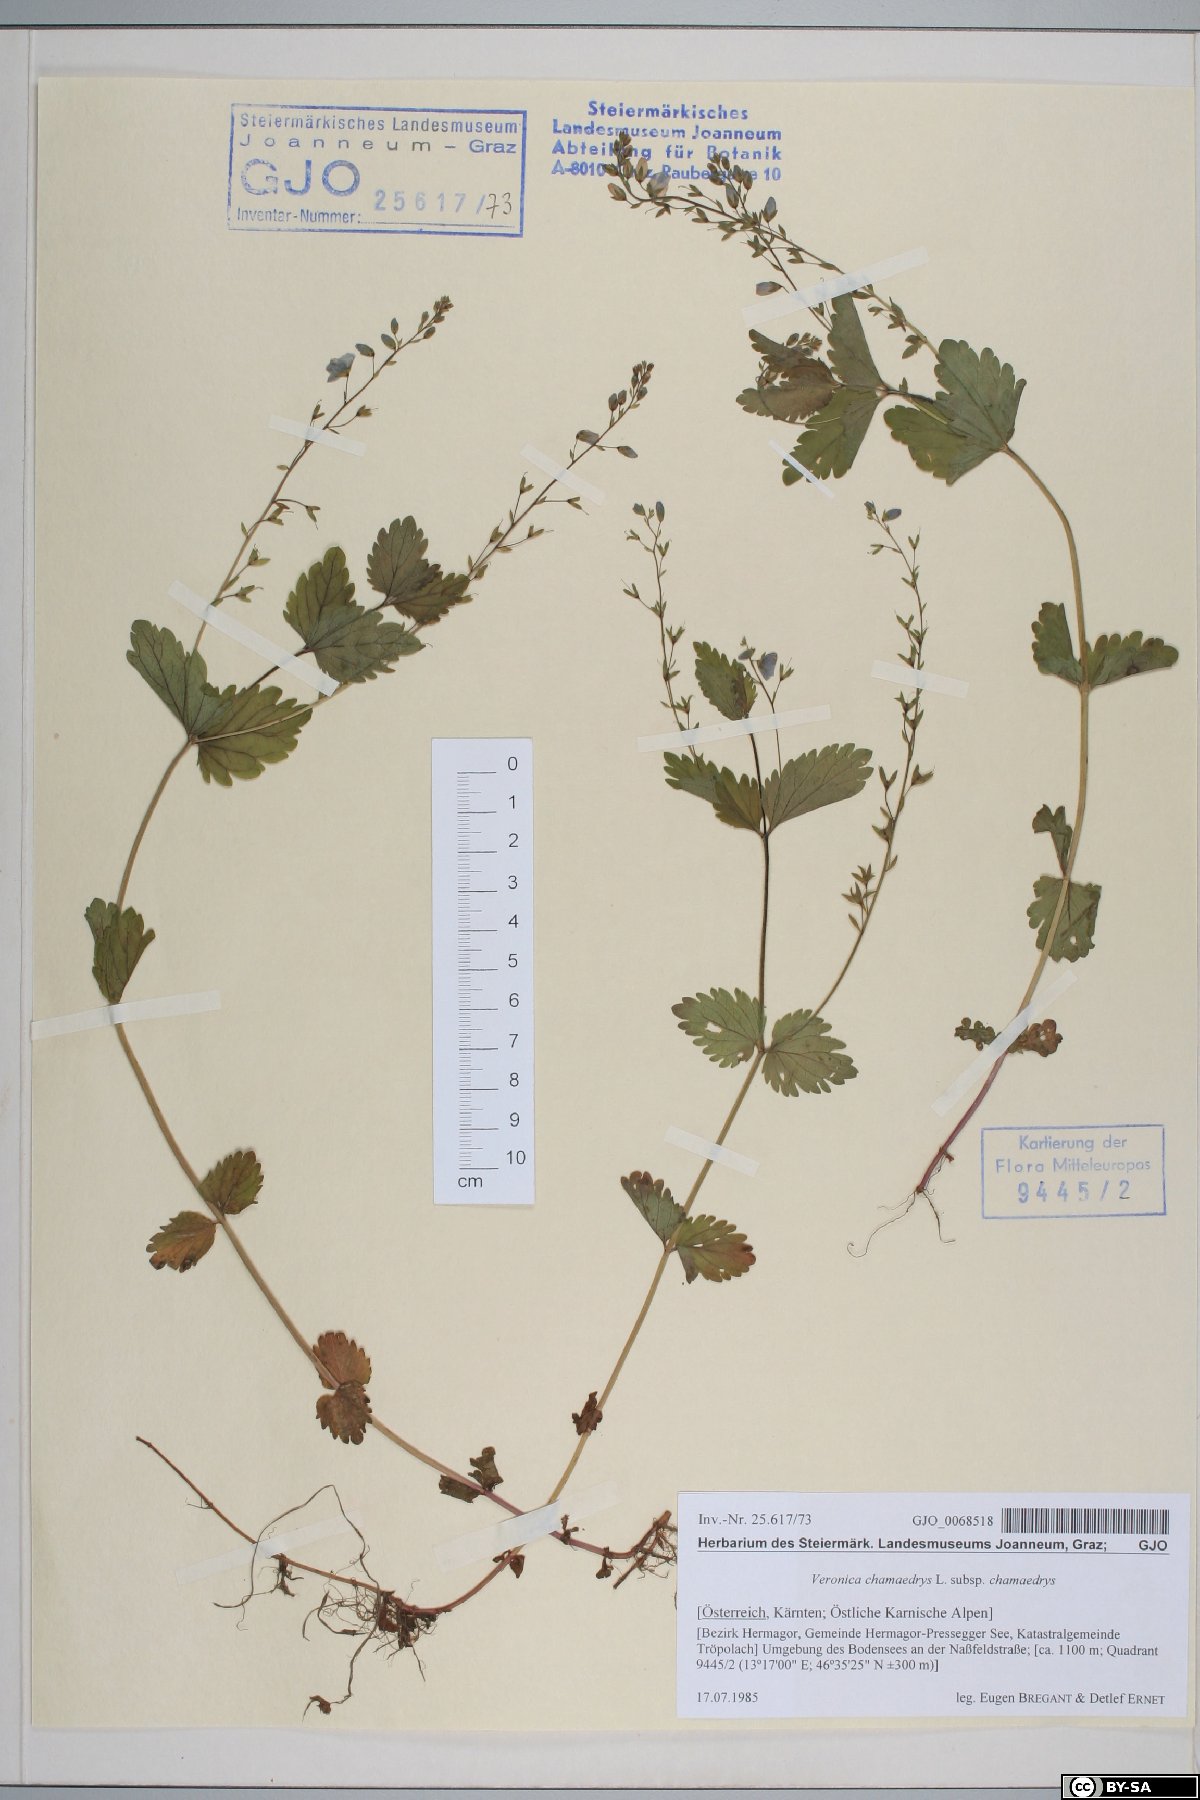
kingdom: Plantae
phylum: Tracheophyta
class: Magnoliopsida
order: Lamiales
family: Plantaginaceae
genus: Veronica
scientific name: Veronica chamaedrys
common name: Germander speedwell
